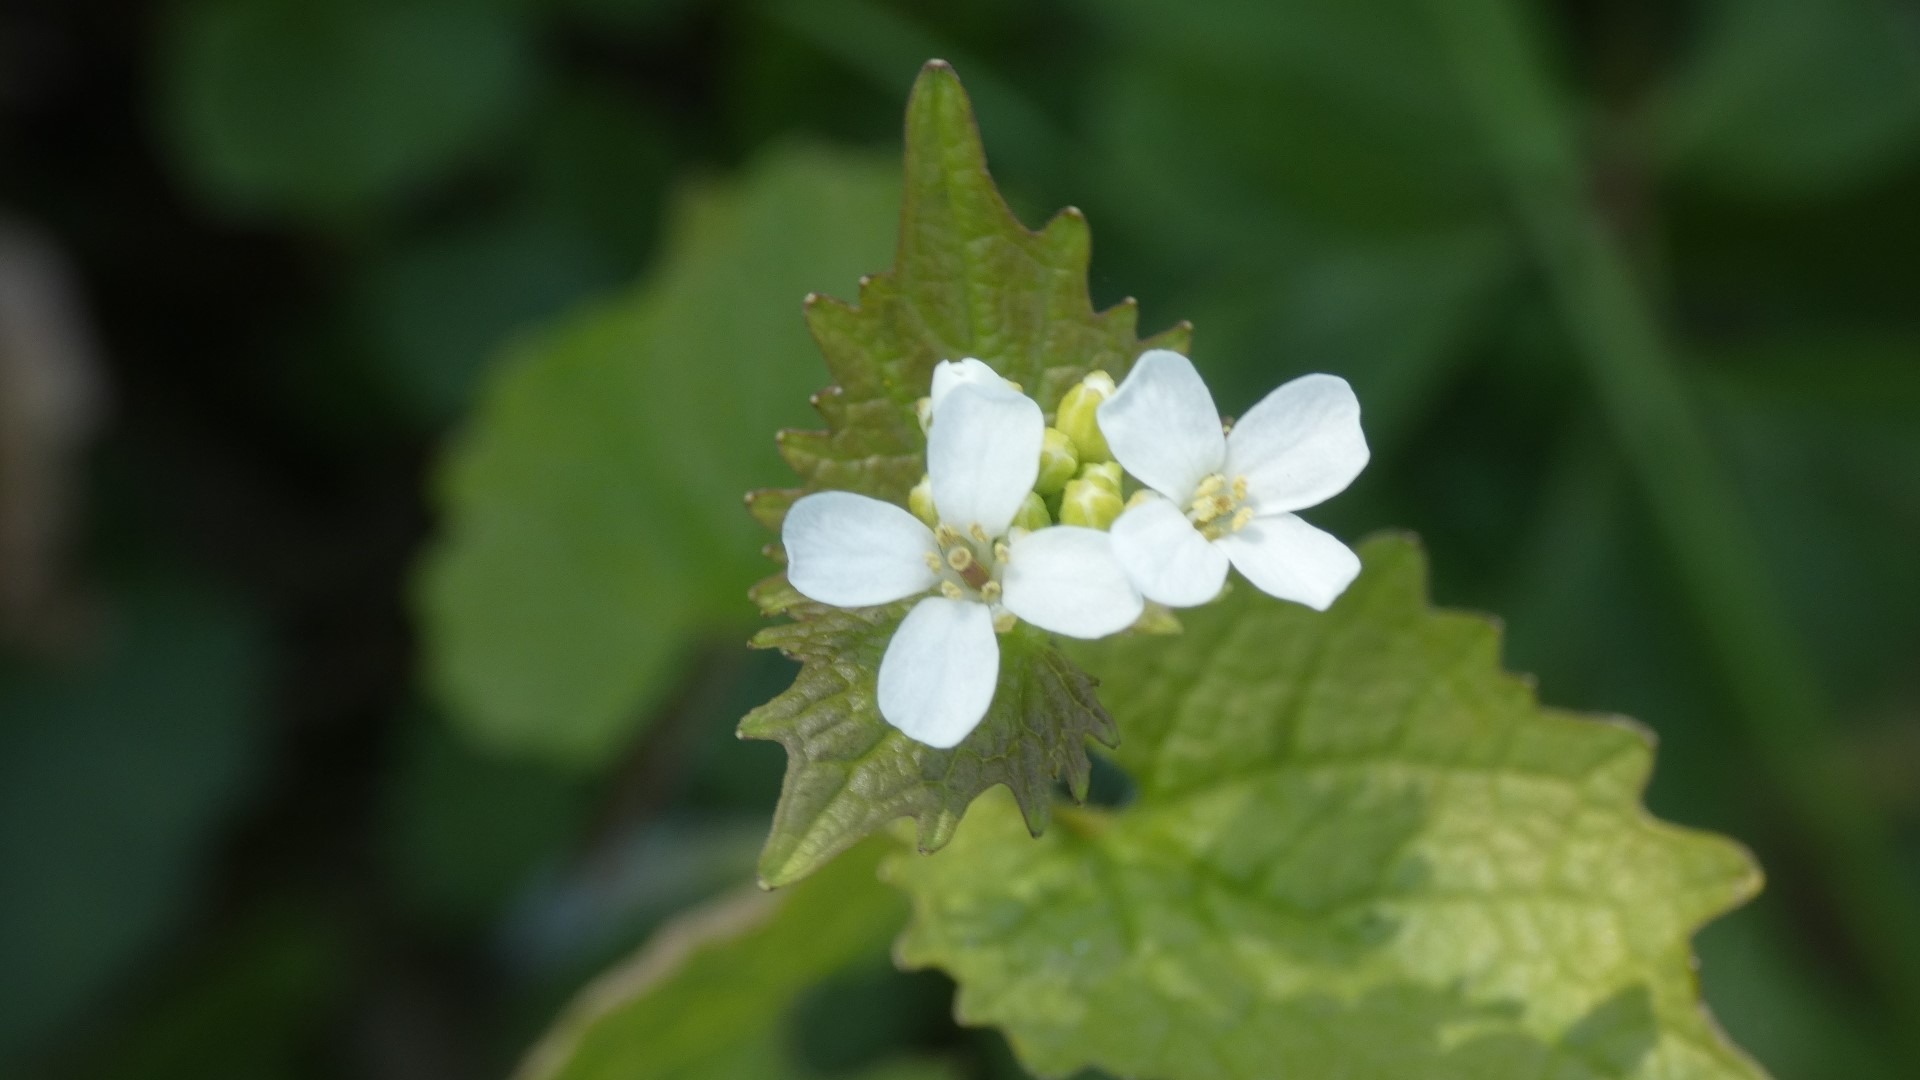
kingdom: Plantae
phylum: Tracheophyta
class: Magnoliopsida
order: Brassicales
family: Brassicaceae
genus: Alliaria
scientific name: Alliaria petiolata
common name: Løgkarse
